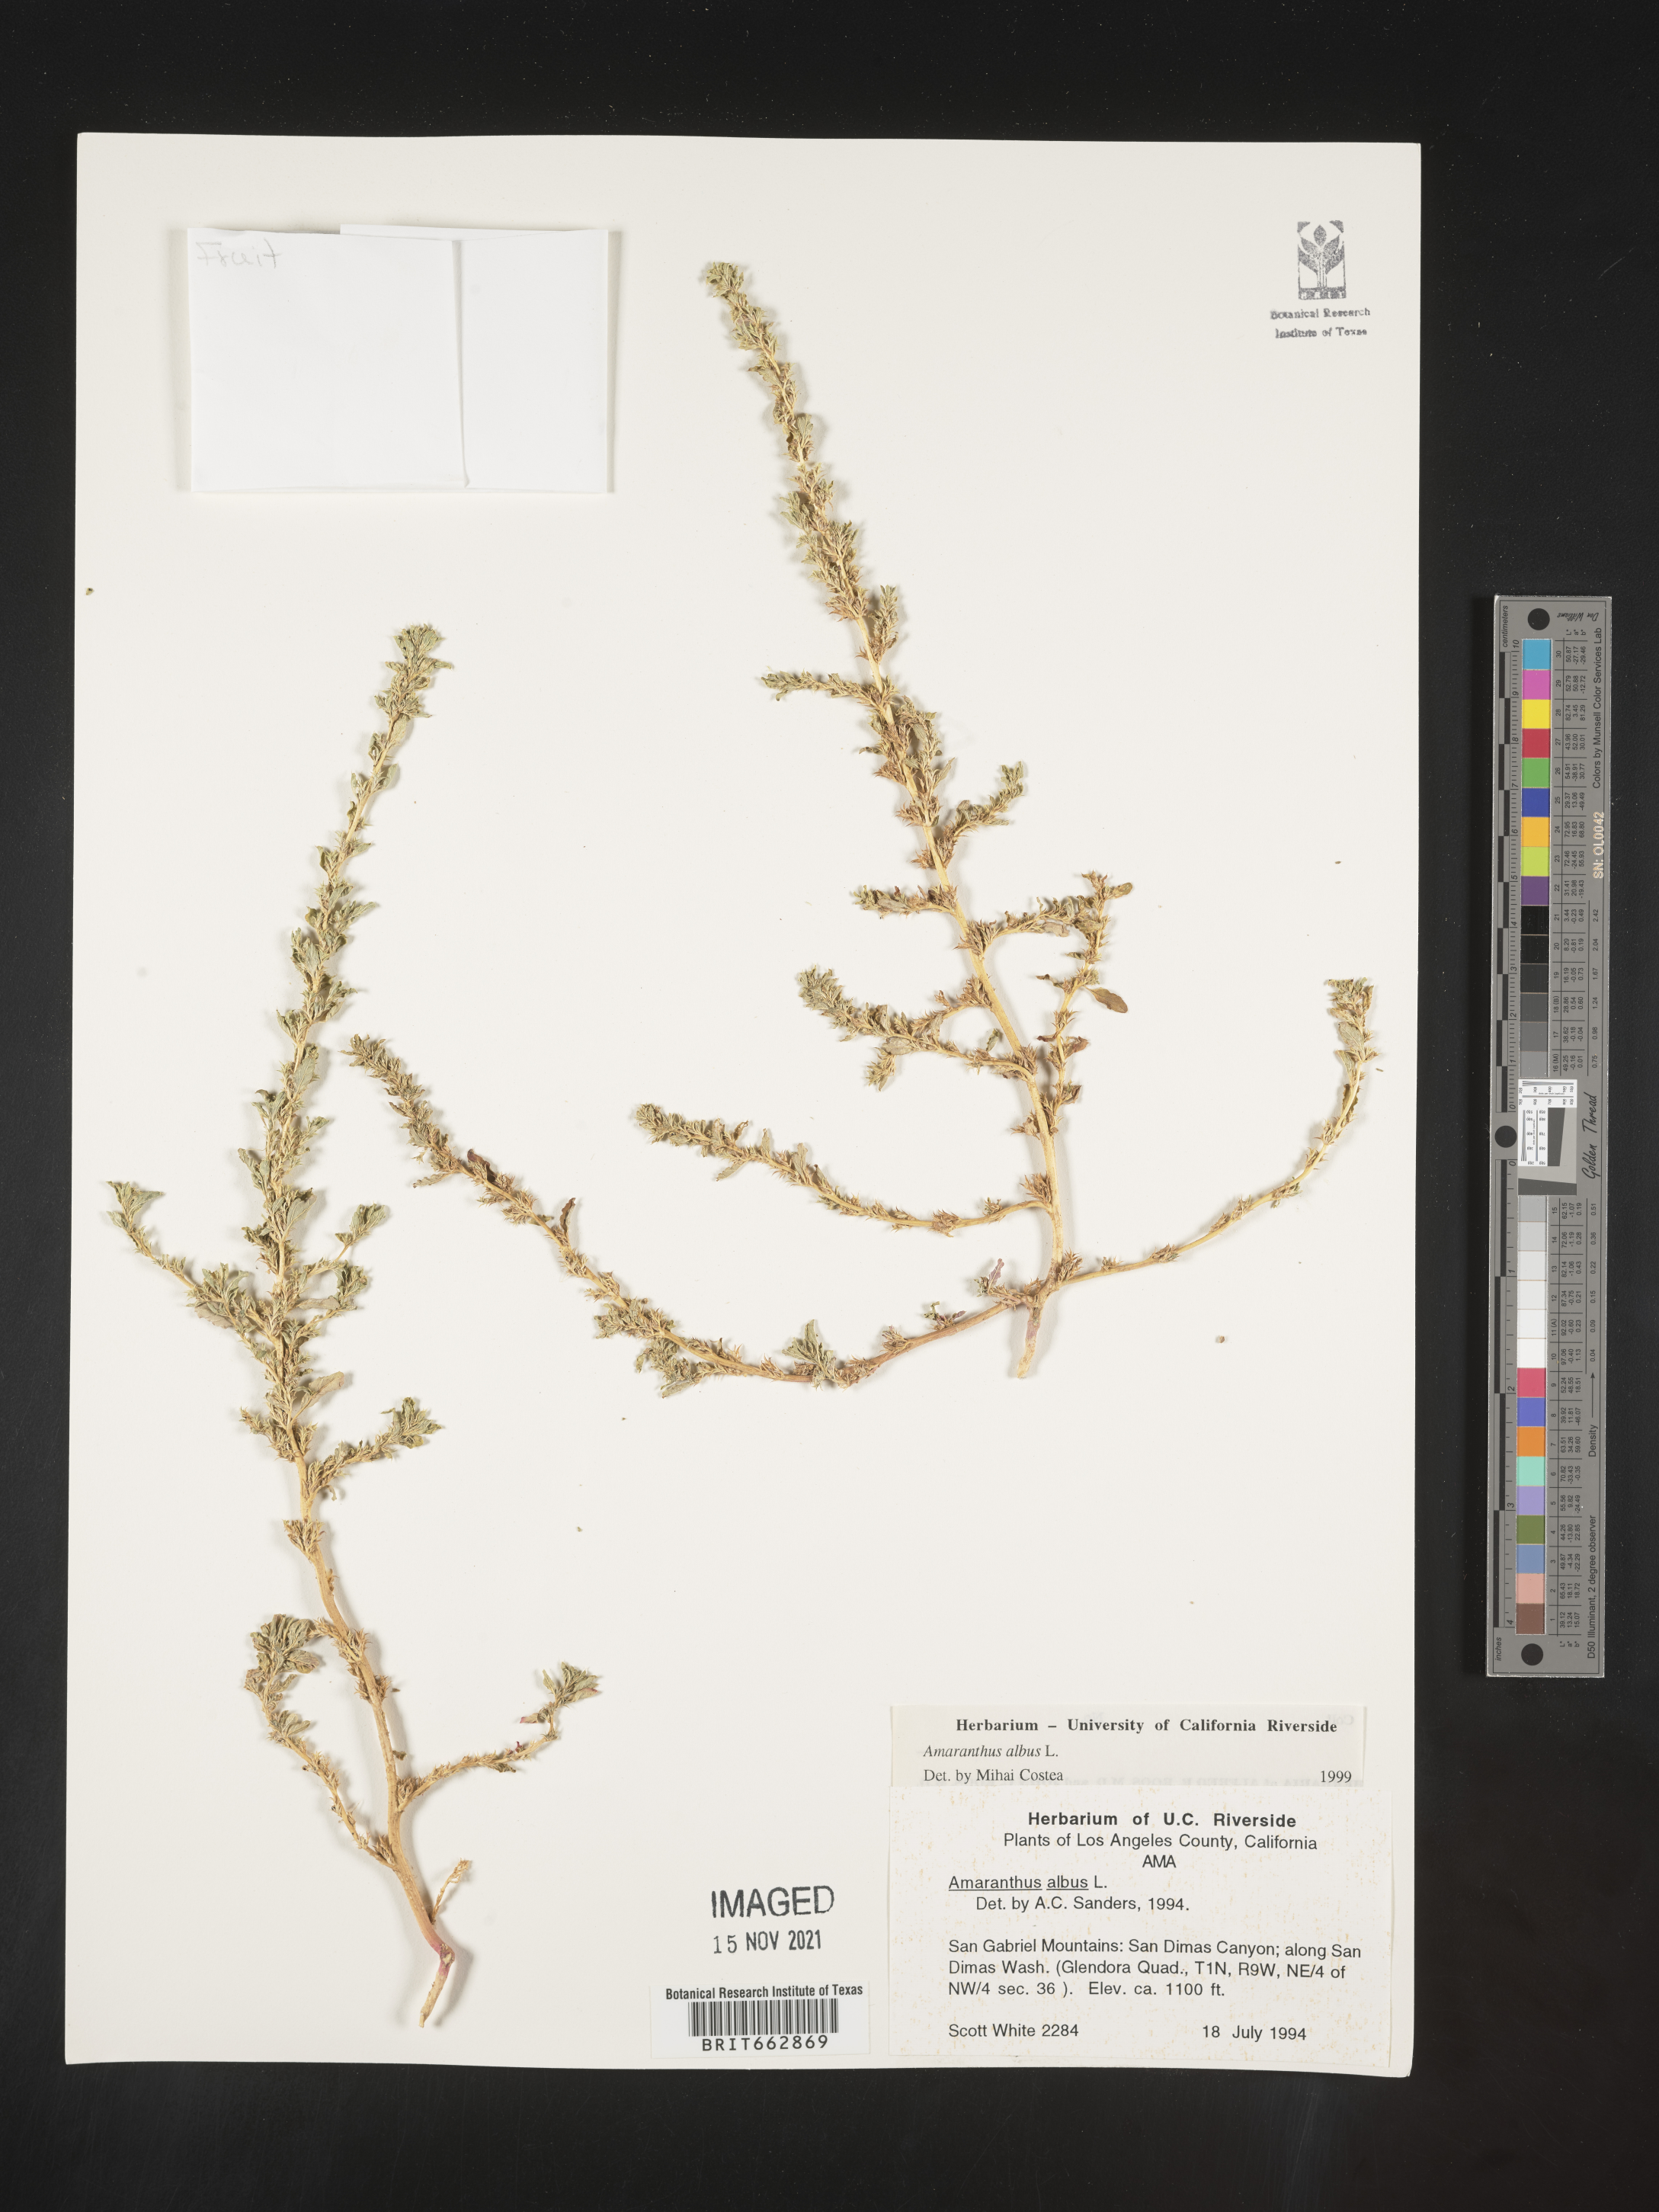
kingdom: Plantae
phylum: Tracheophyta
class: Magnoliopsida
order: Caryophyllales
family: Amaranthaceae
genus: Amaranthus
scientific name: Amaranthus albus
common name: White pigweed
